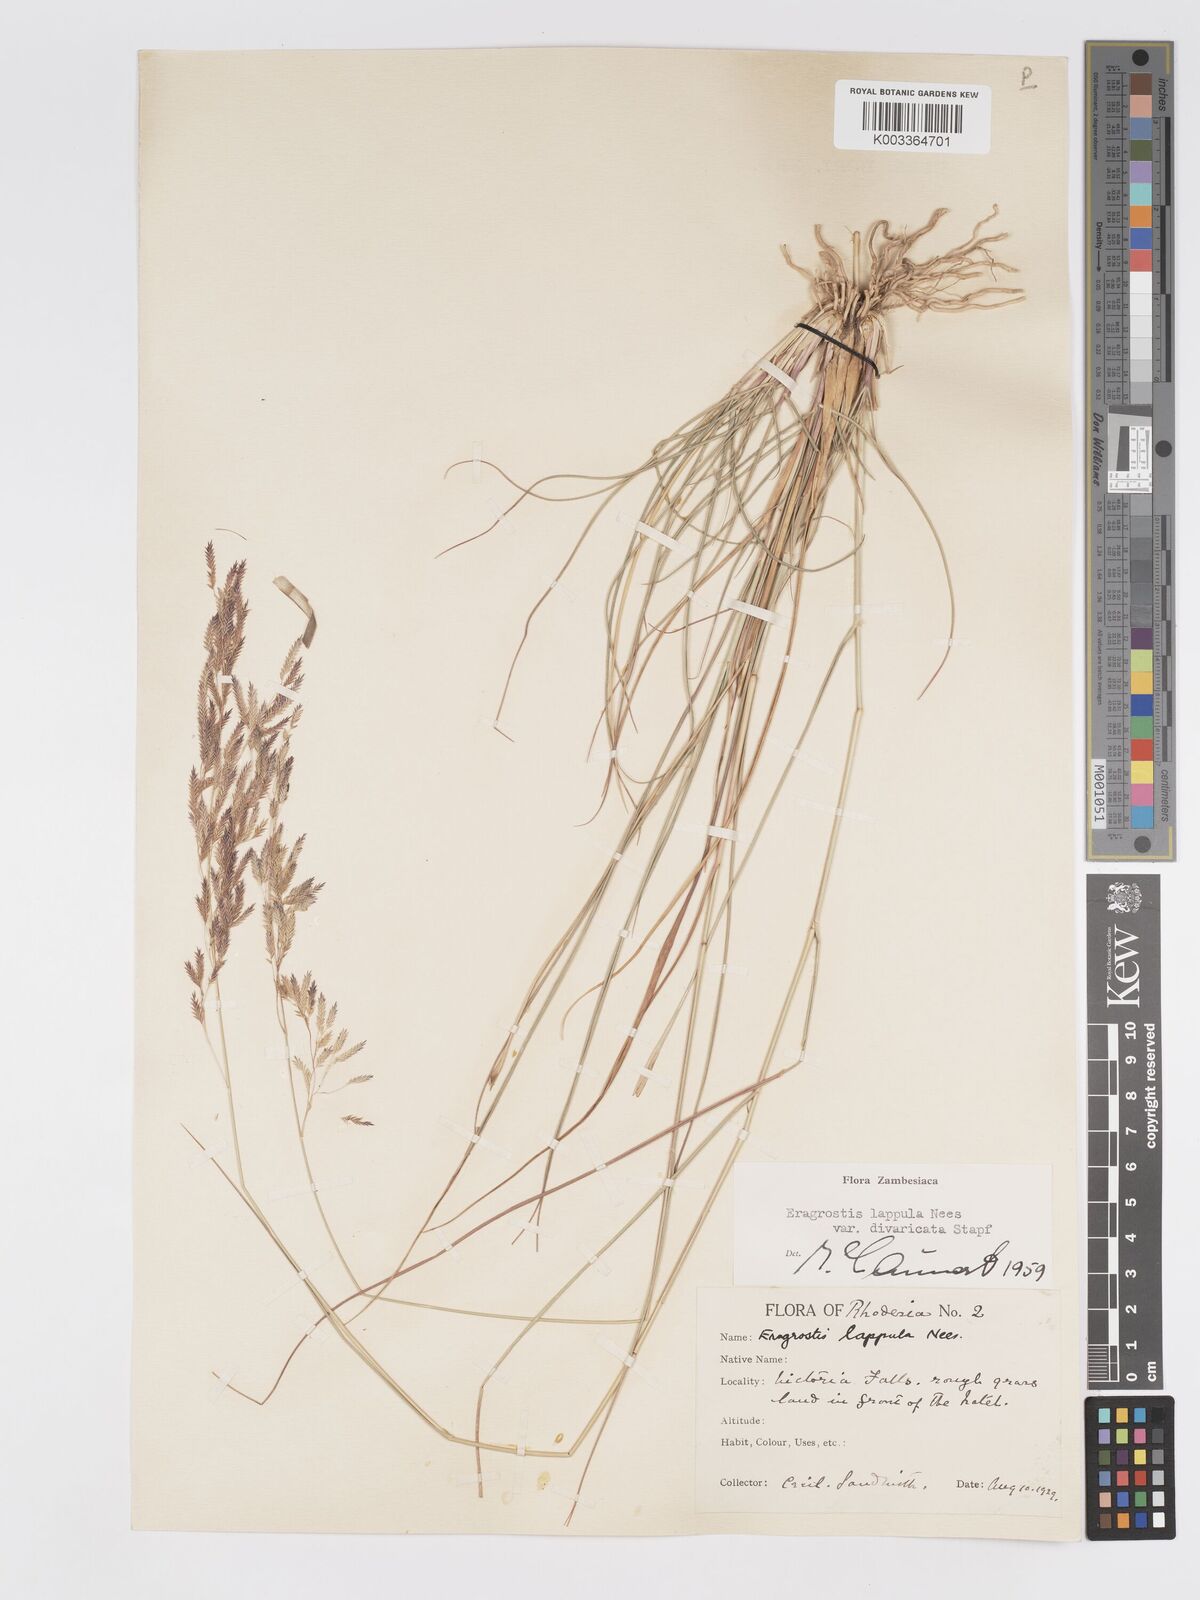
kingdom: Plantae
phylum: Tracheophyta
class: Liliopsida
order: Poales
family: Poaceae
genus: Eragrostis
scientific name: Eragrostis lappula
